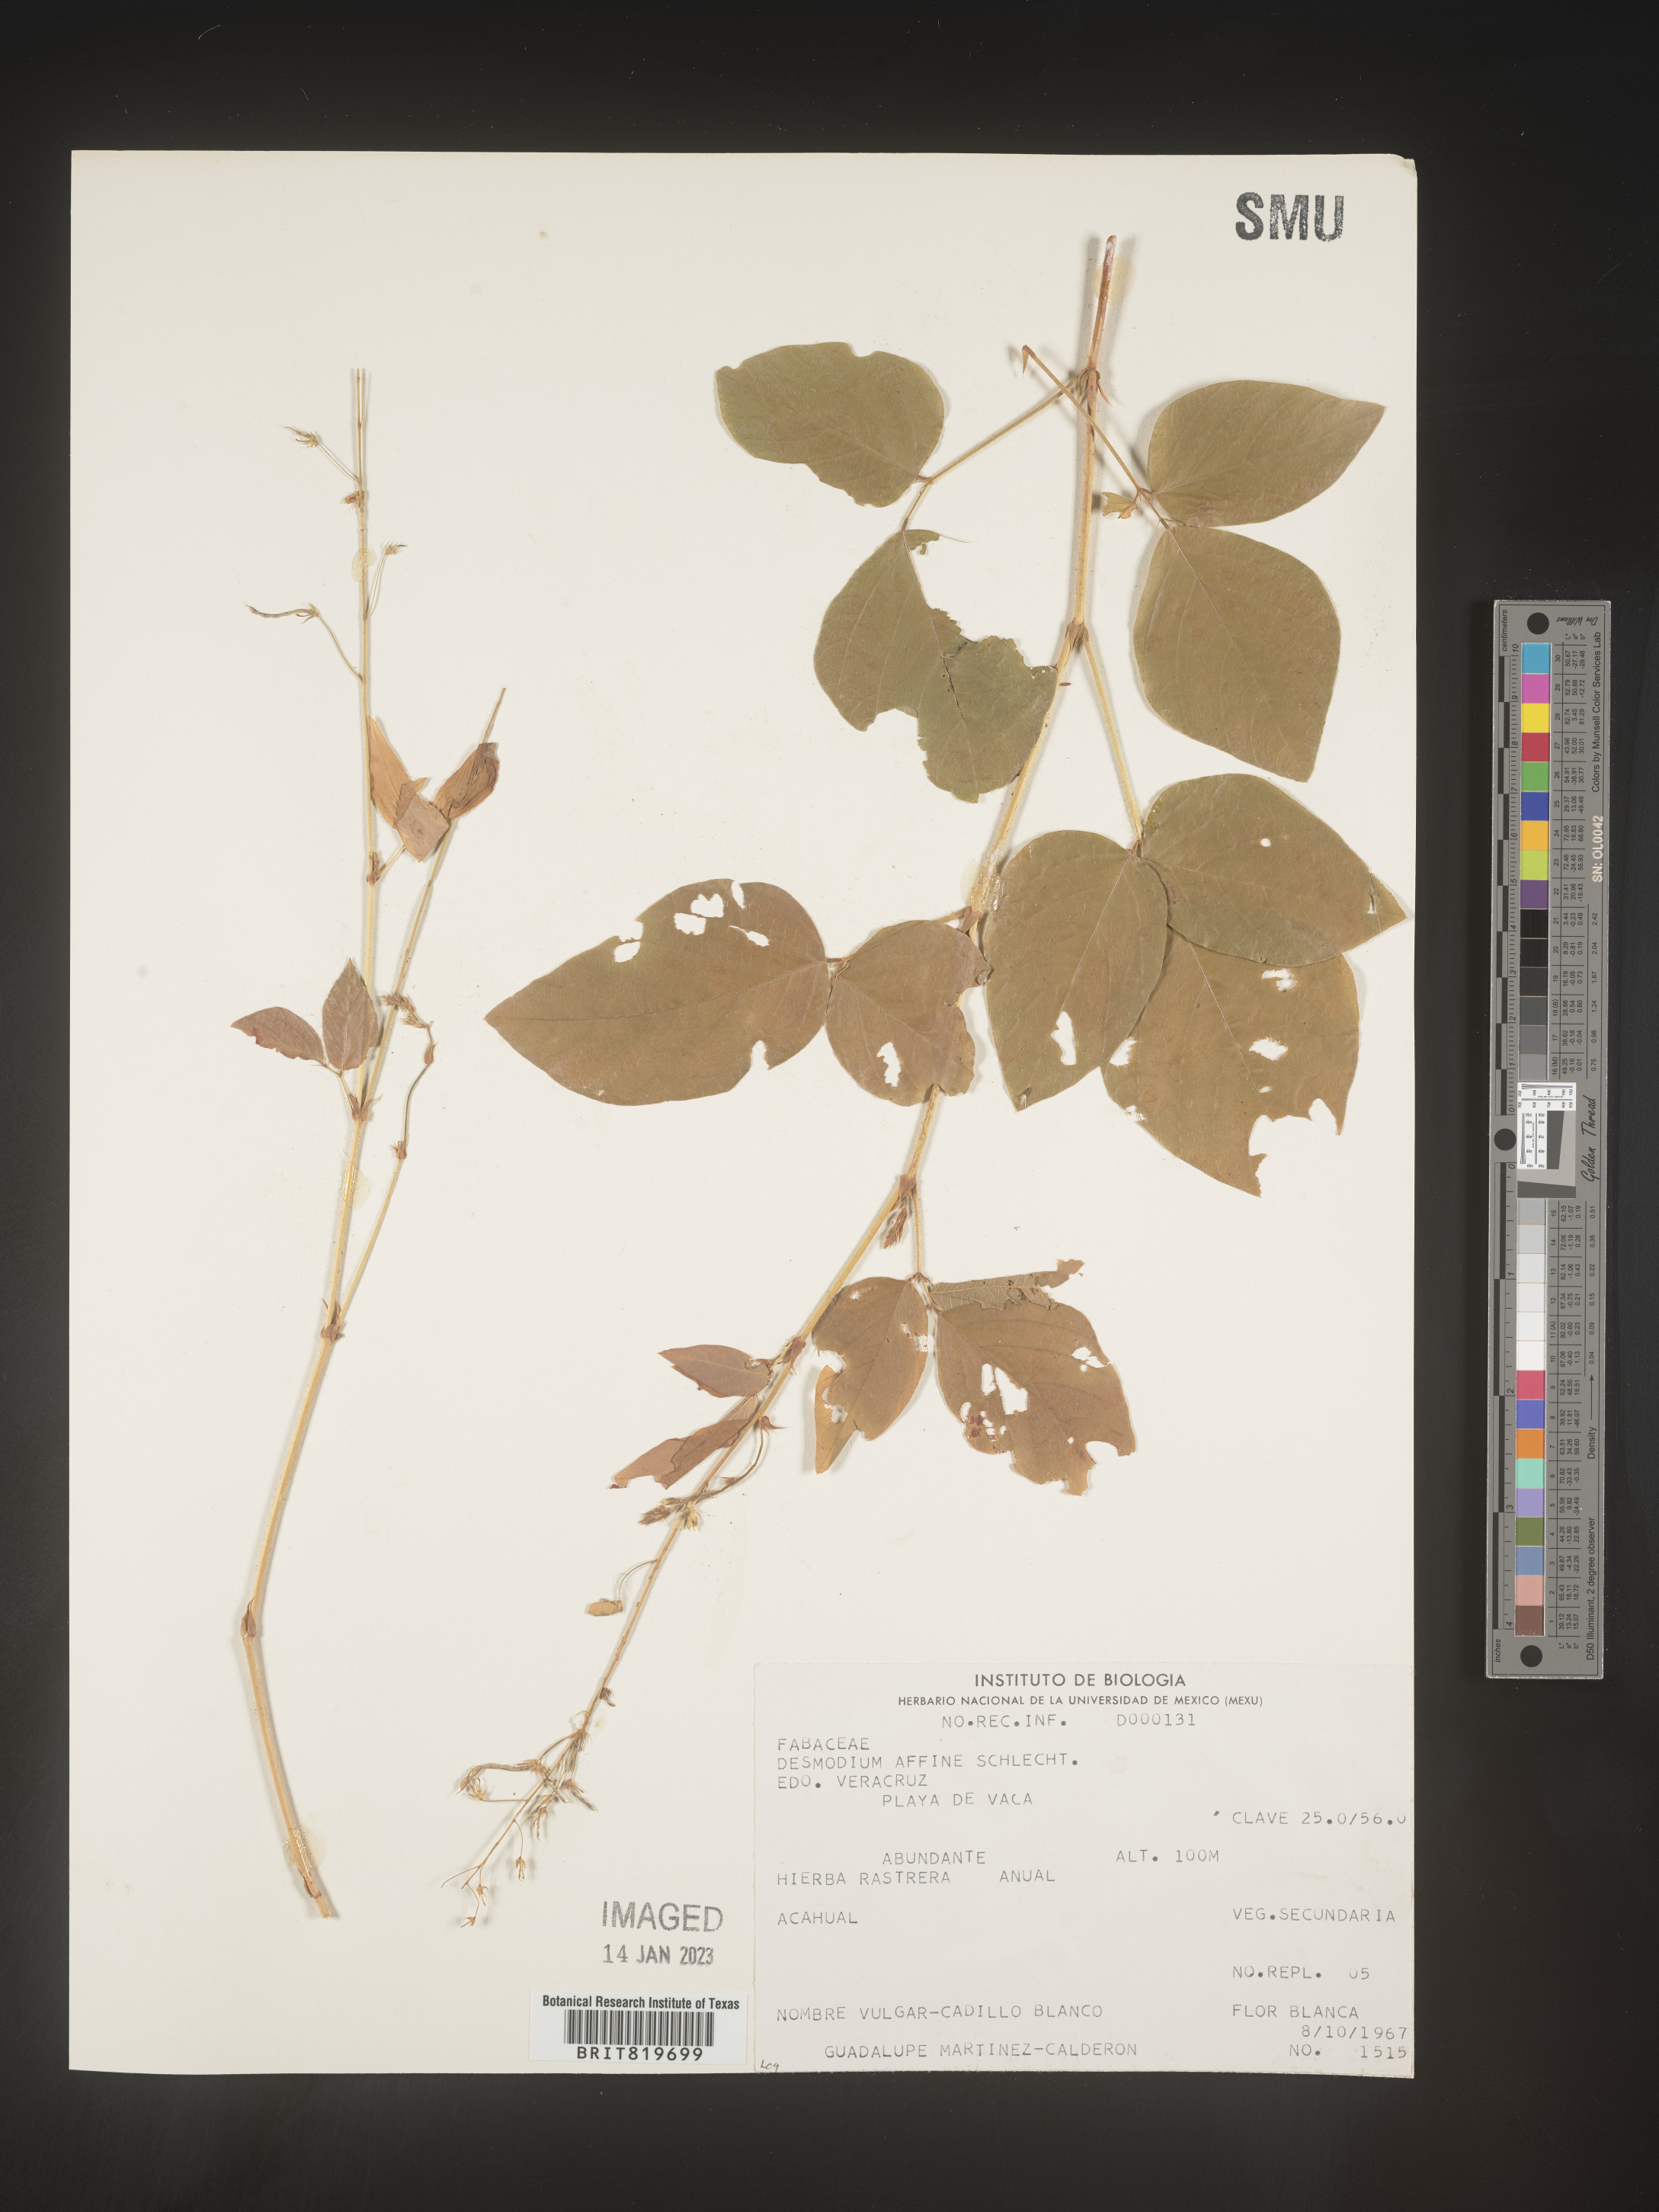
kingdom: Plantae
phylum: Tracheophyta
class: Magnoliopsida
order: Fabales
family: Fabaceae
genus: Desmodium
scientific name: Desmodium
